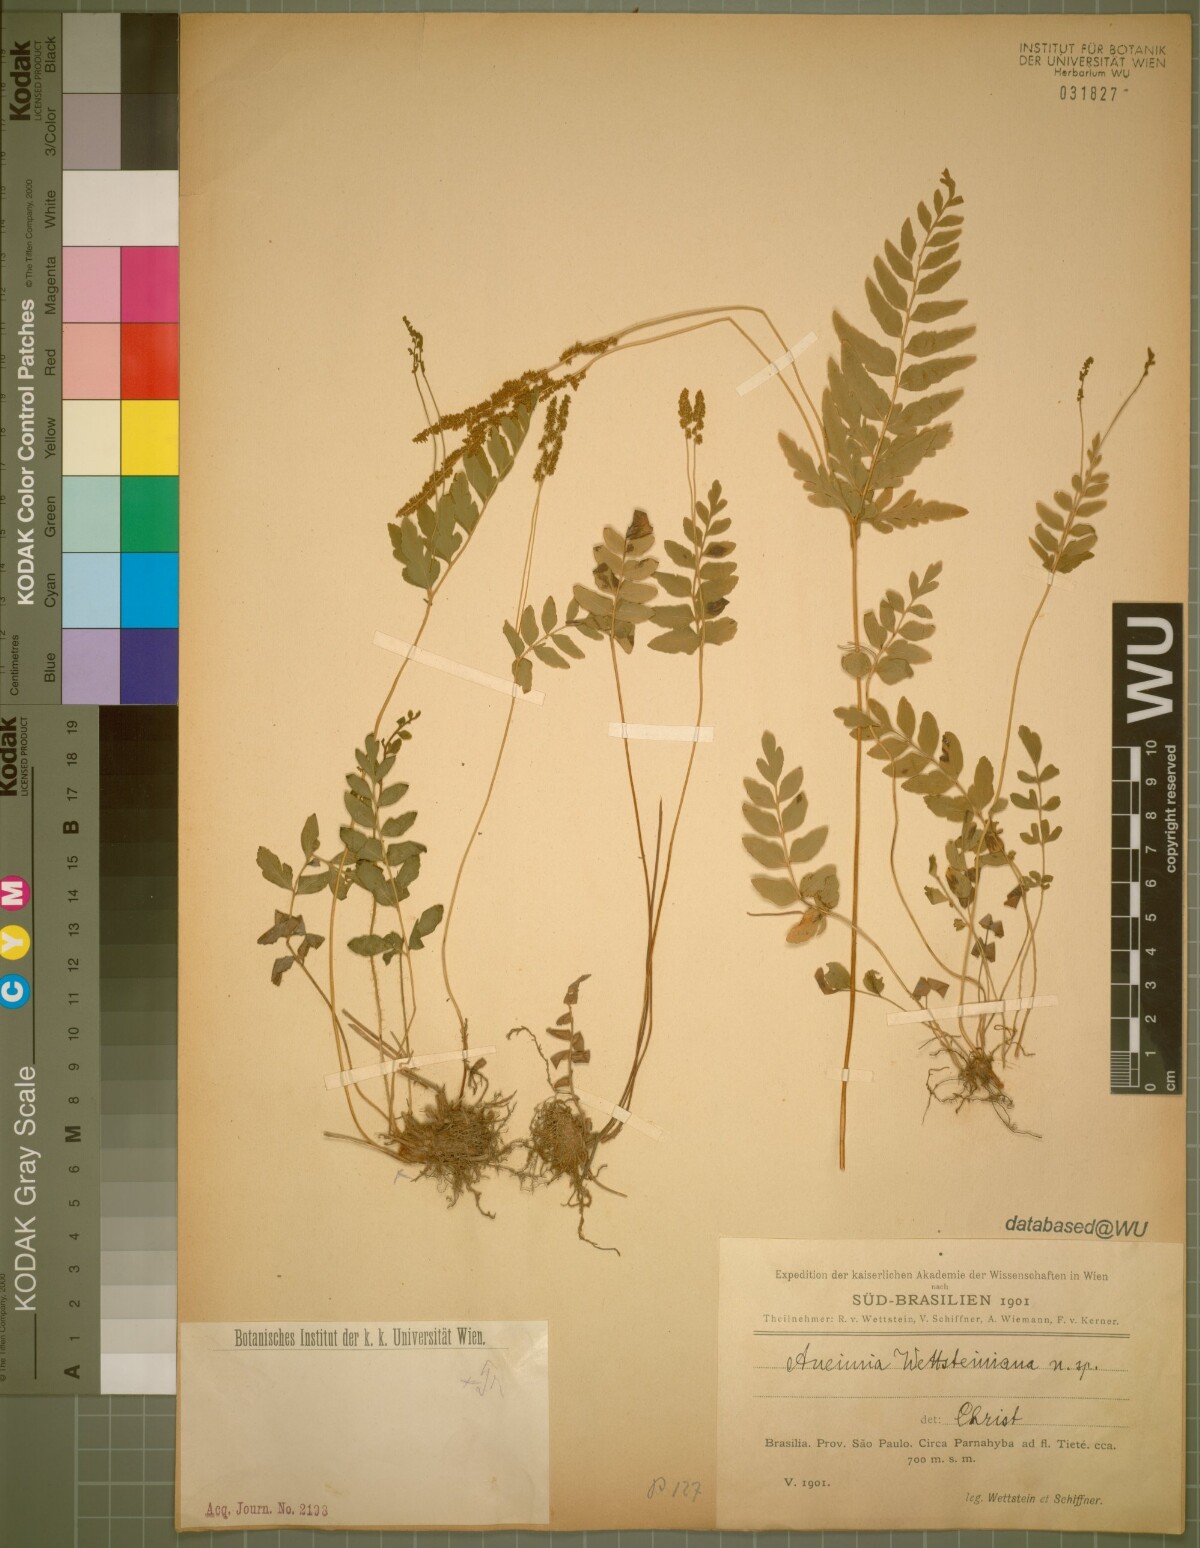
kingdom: Plantae
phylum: Tracheophyta
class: Polypodiopsida
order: Schizaeales
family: Anemiaceae
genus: Anemia
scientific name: Anemia wettsteinii
